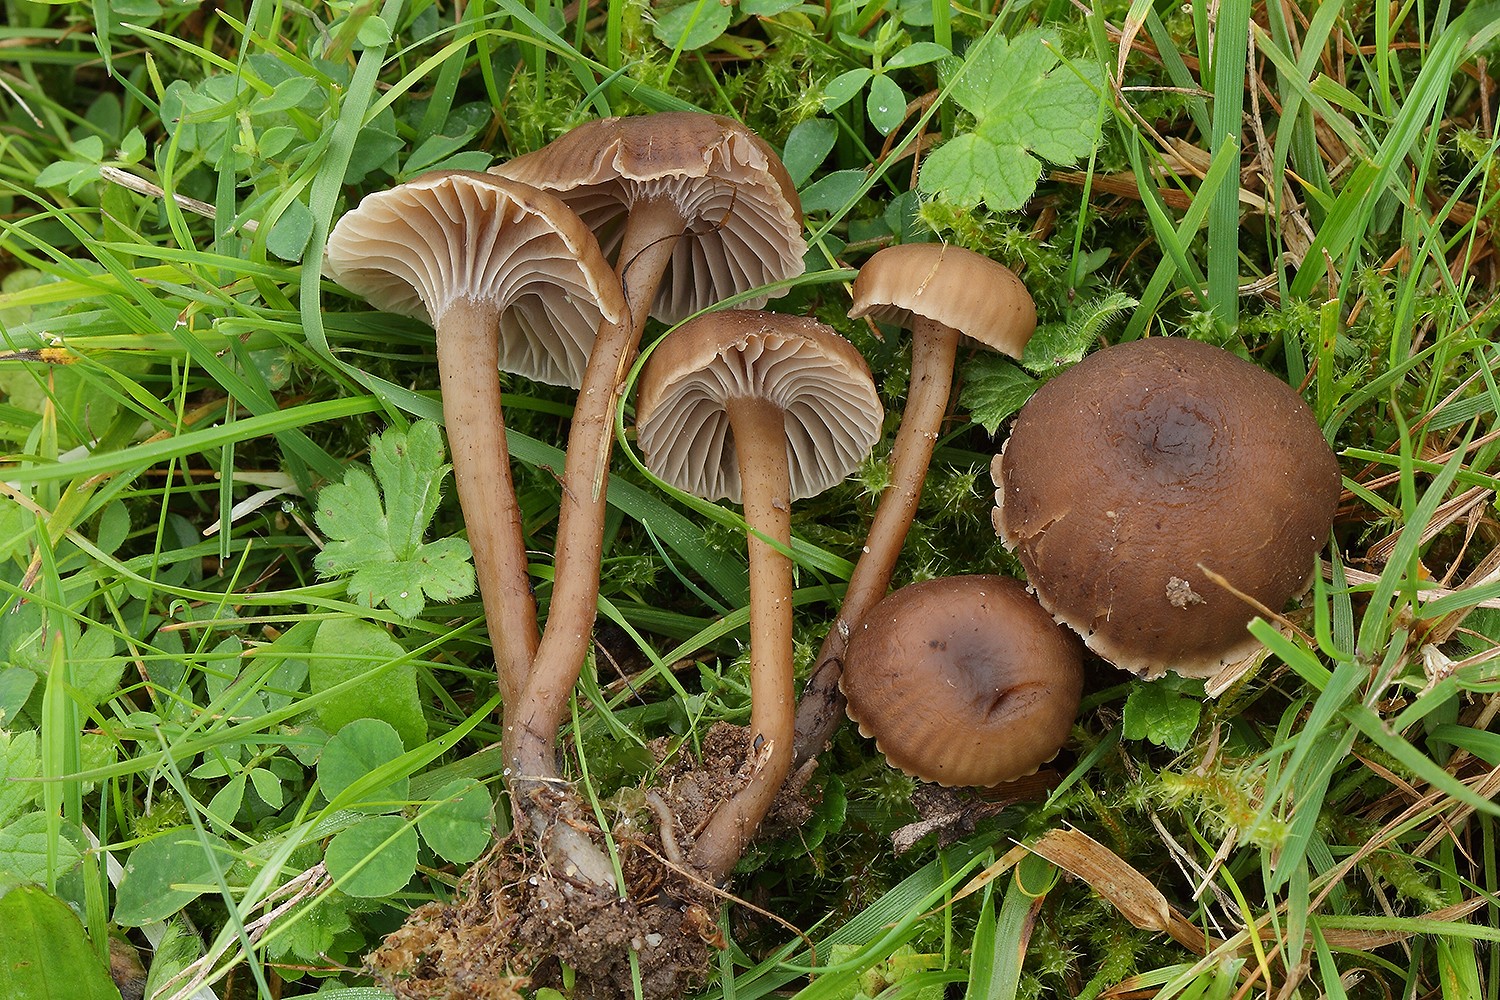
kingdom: Fungi
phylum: Basidiomycota
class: Agaricomycetes
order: Agaricales
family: Clavariaceae
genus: Hodophilus
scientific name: Hodophilus foetens
